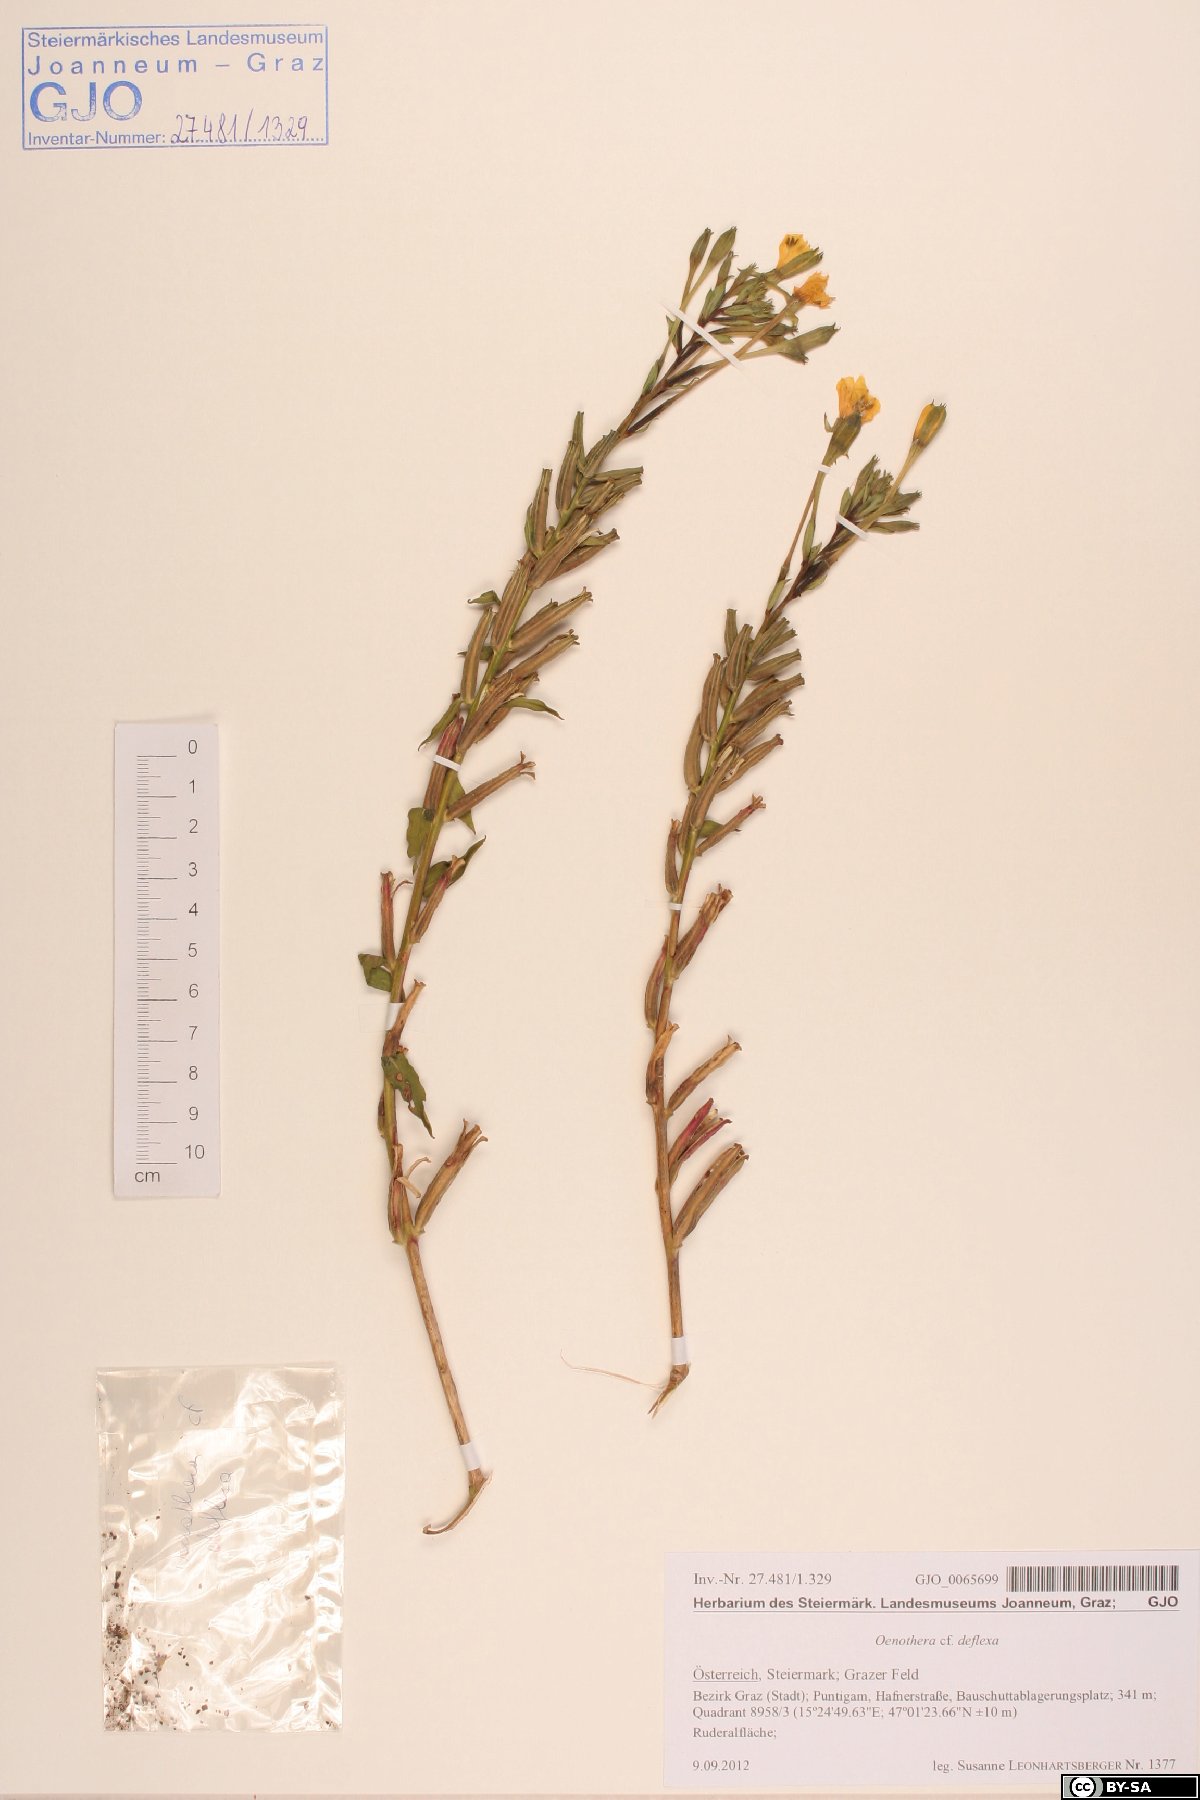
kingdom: Plantae
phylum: Tracheophyta
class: Magnoliopsida
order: Myrtales
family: Onagraceae
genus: Oenothera
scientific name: Oenothera parviflora
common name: Least evening-primrose
